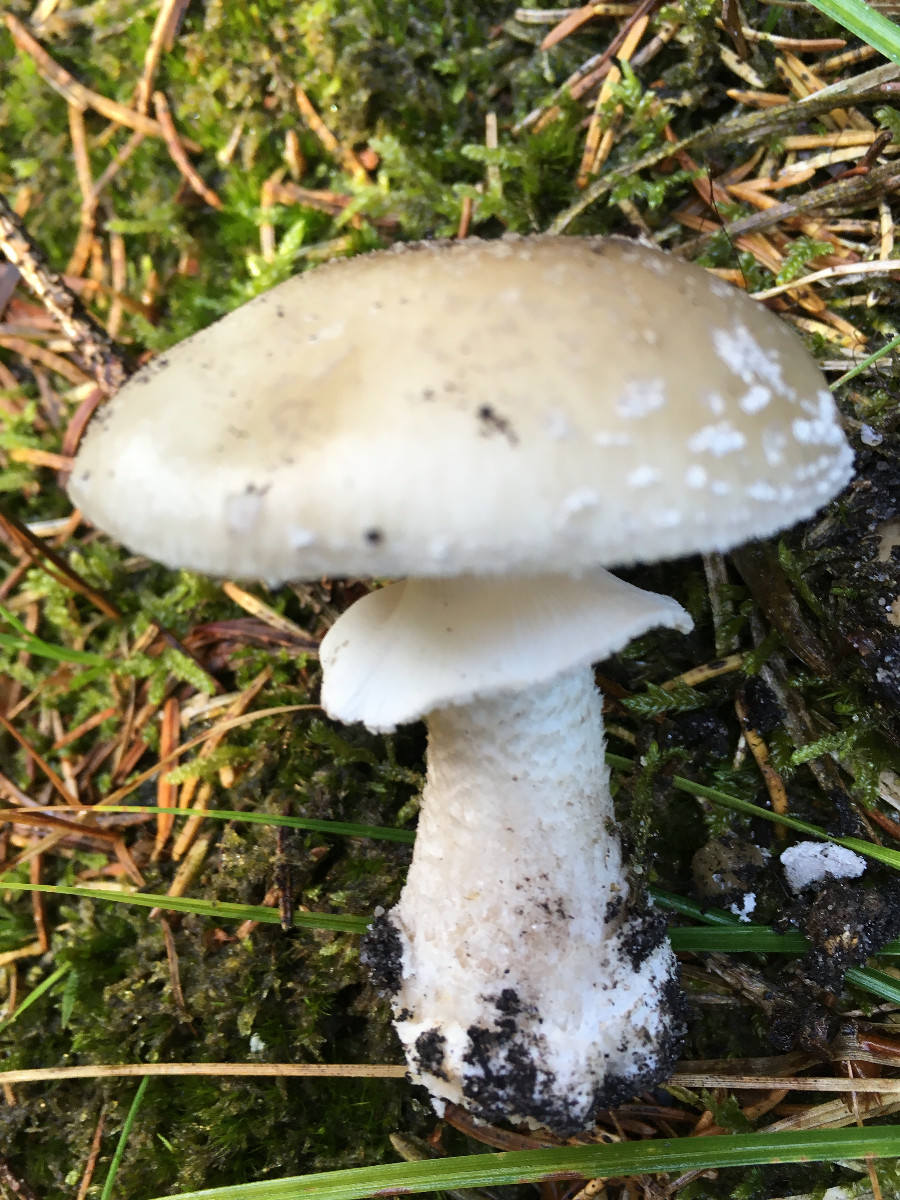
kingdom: Fungi
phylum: Basidiomycota
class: Agaricomycetes
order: Agaricales
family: Amanitaceae
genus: Amanita
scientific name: Amanita
